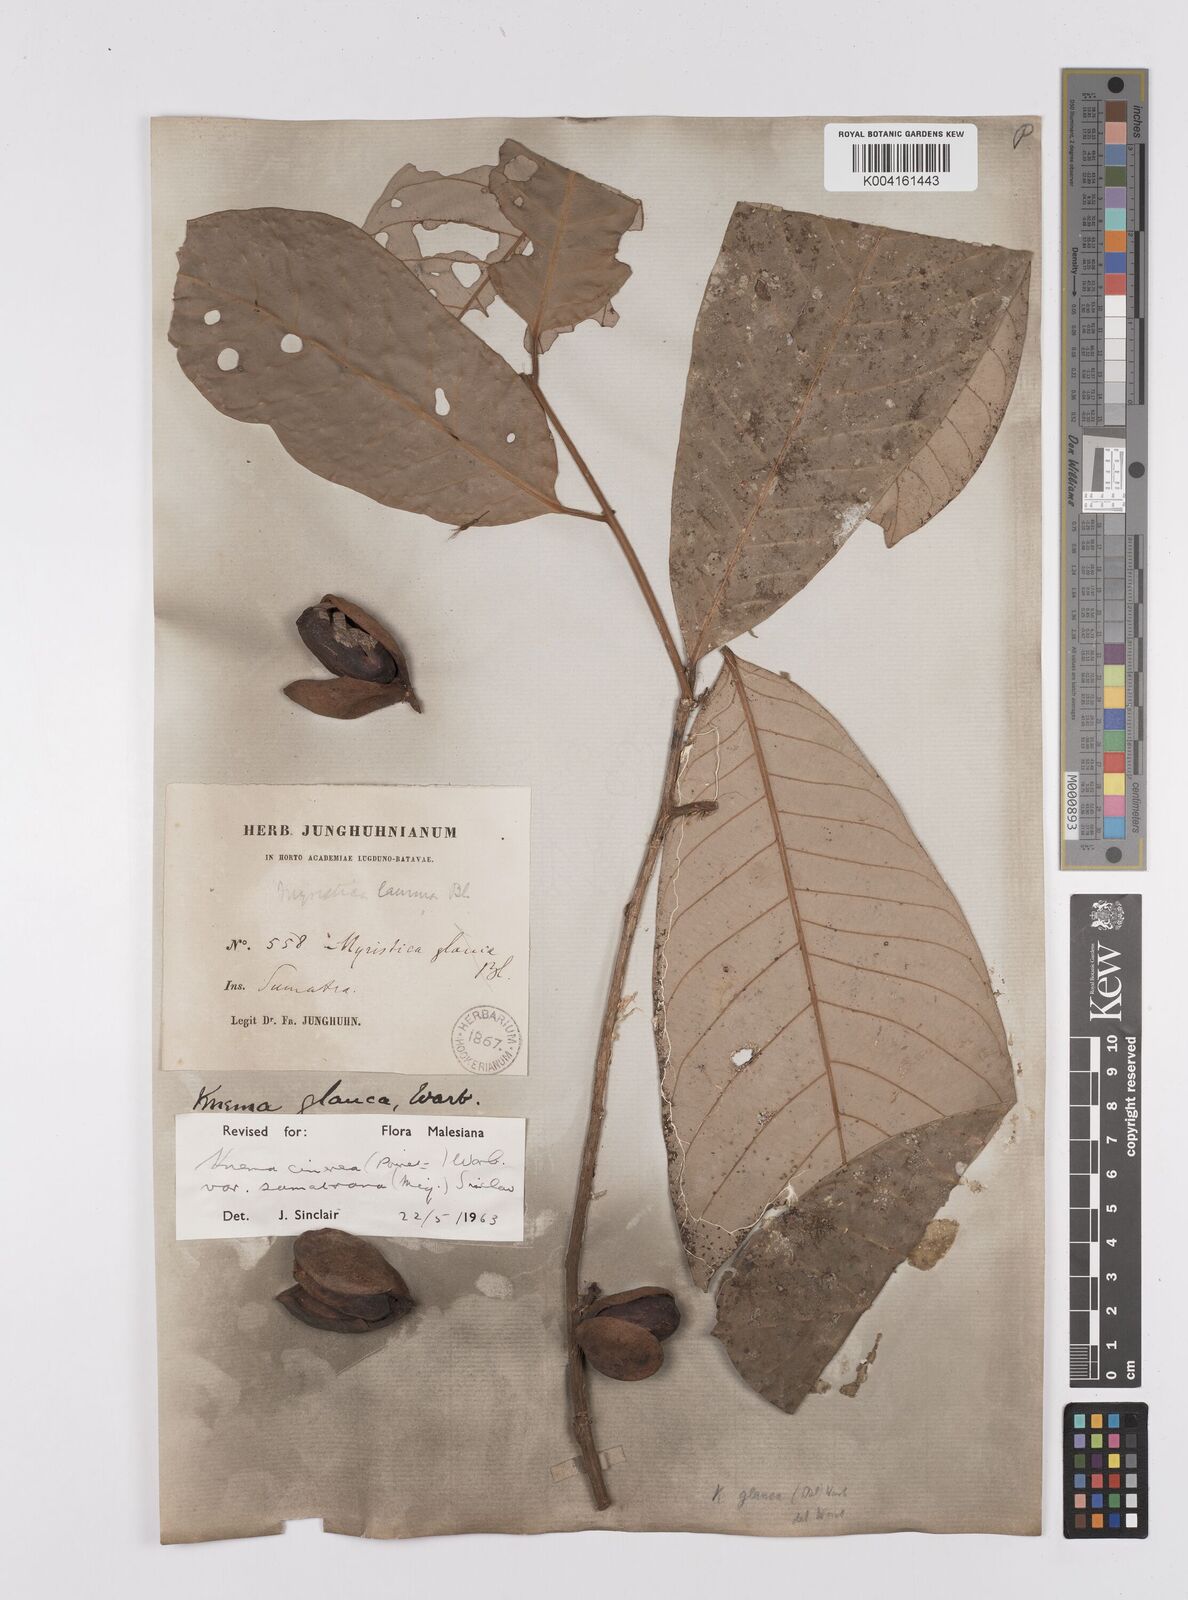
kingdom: Plantae
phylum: Tracheophyta
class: Magnoliopsida
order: Magnoliales
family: Myristicaceae
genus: Knema
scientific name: Knema
